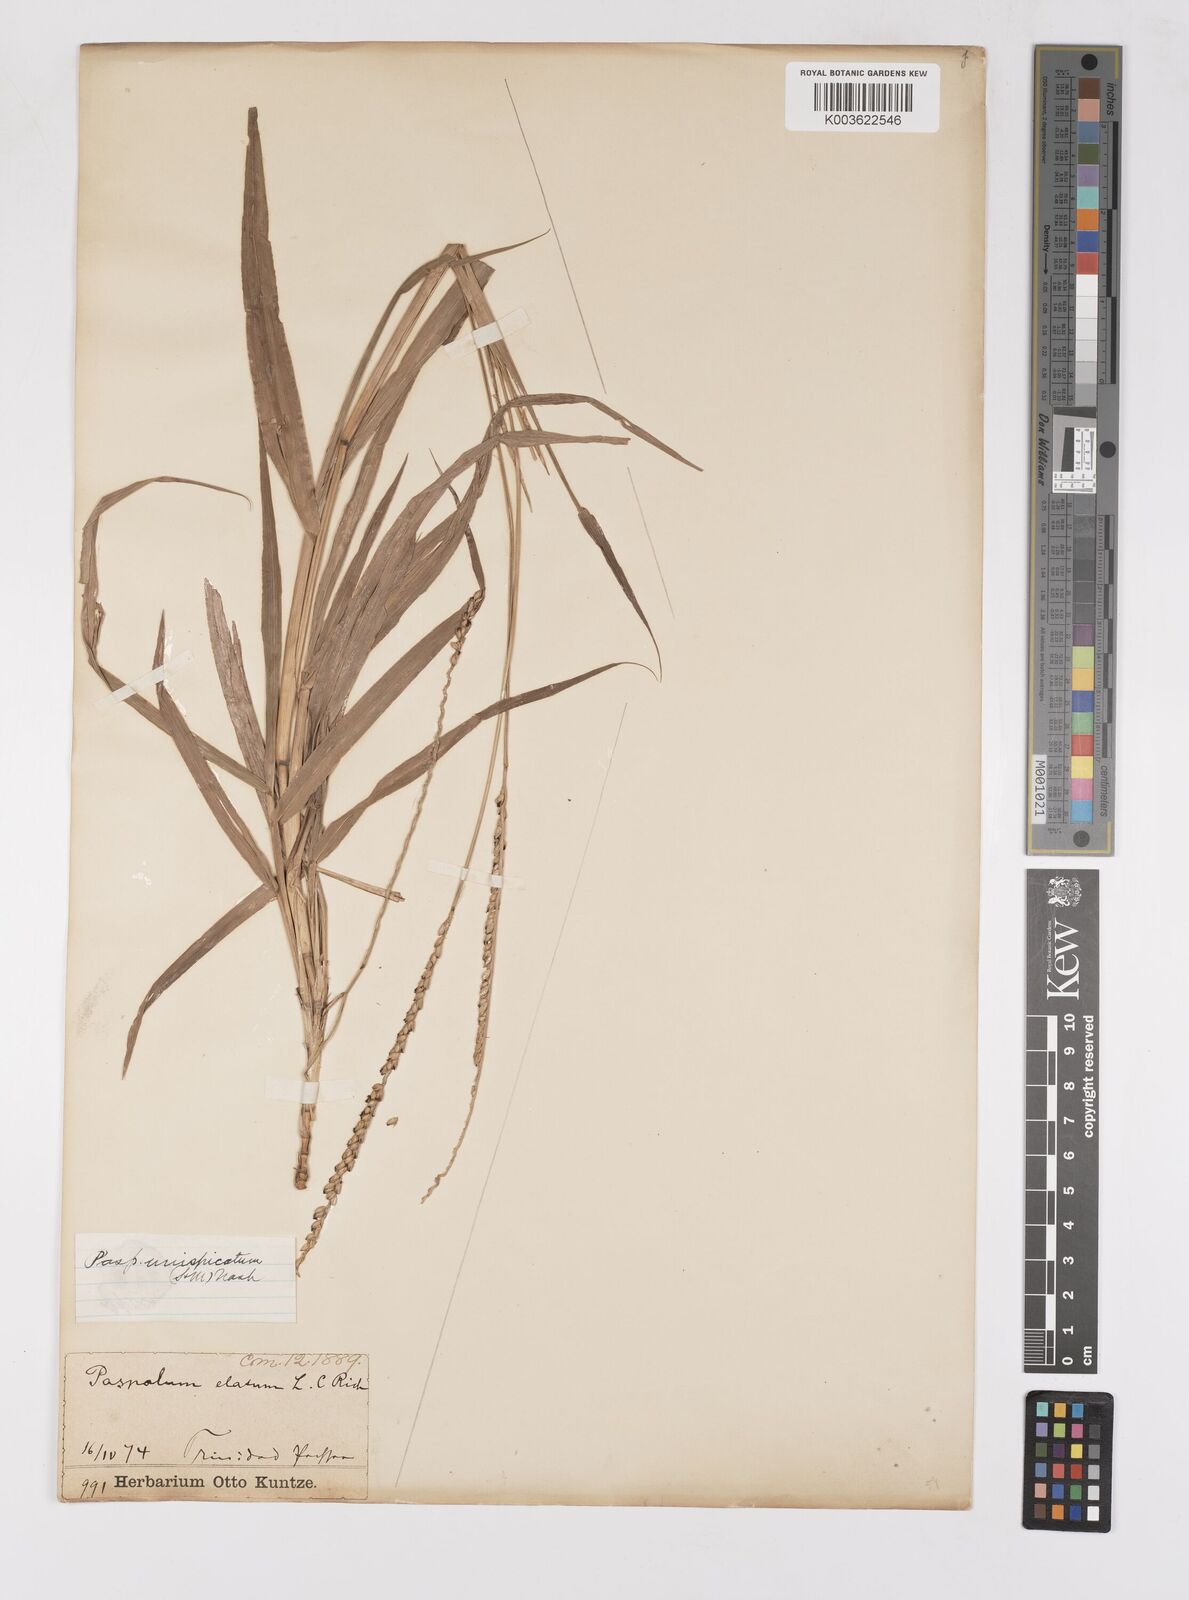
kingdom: Plantae
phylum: Tracheophyta
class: Liliopsida
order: Poales
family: Poaceae
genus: Paspalum
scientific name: Paspalum unispicatum
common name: Onespike paspalum
